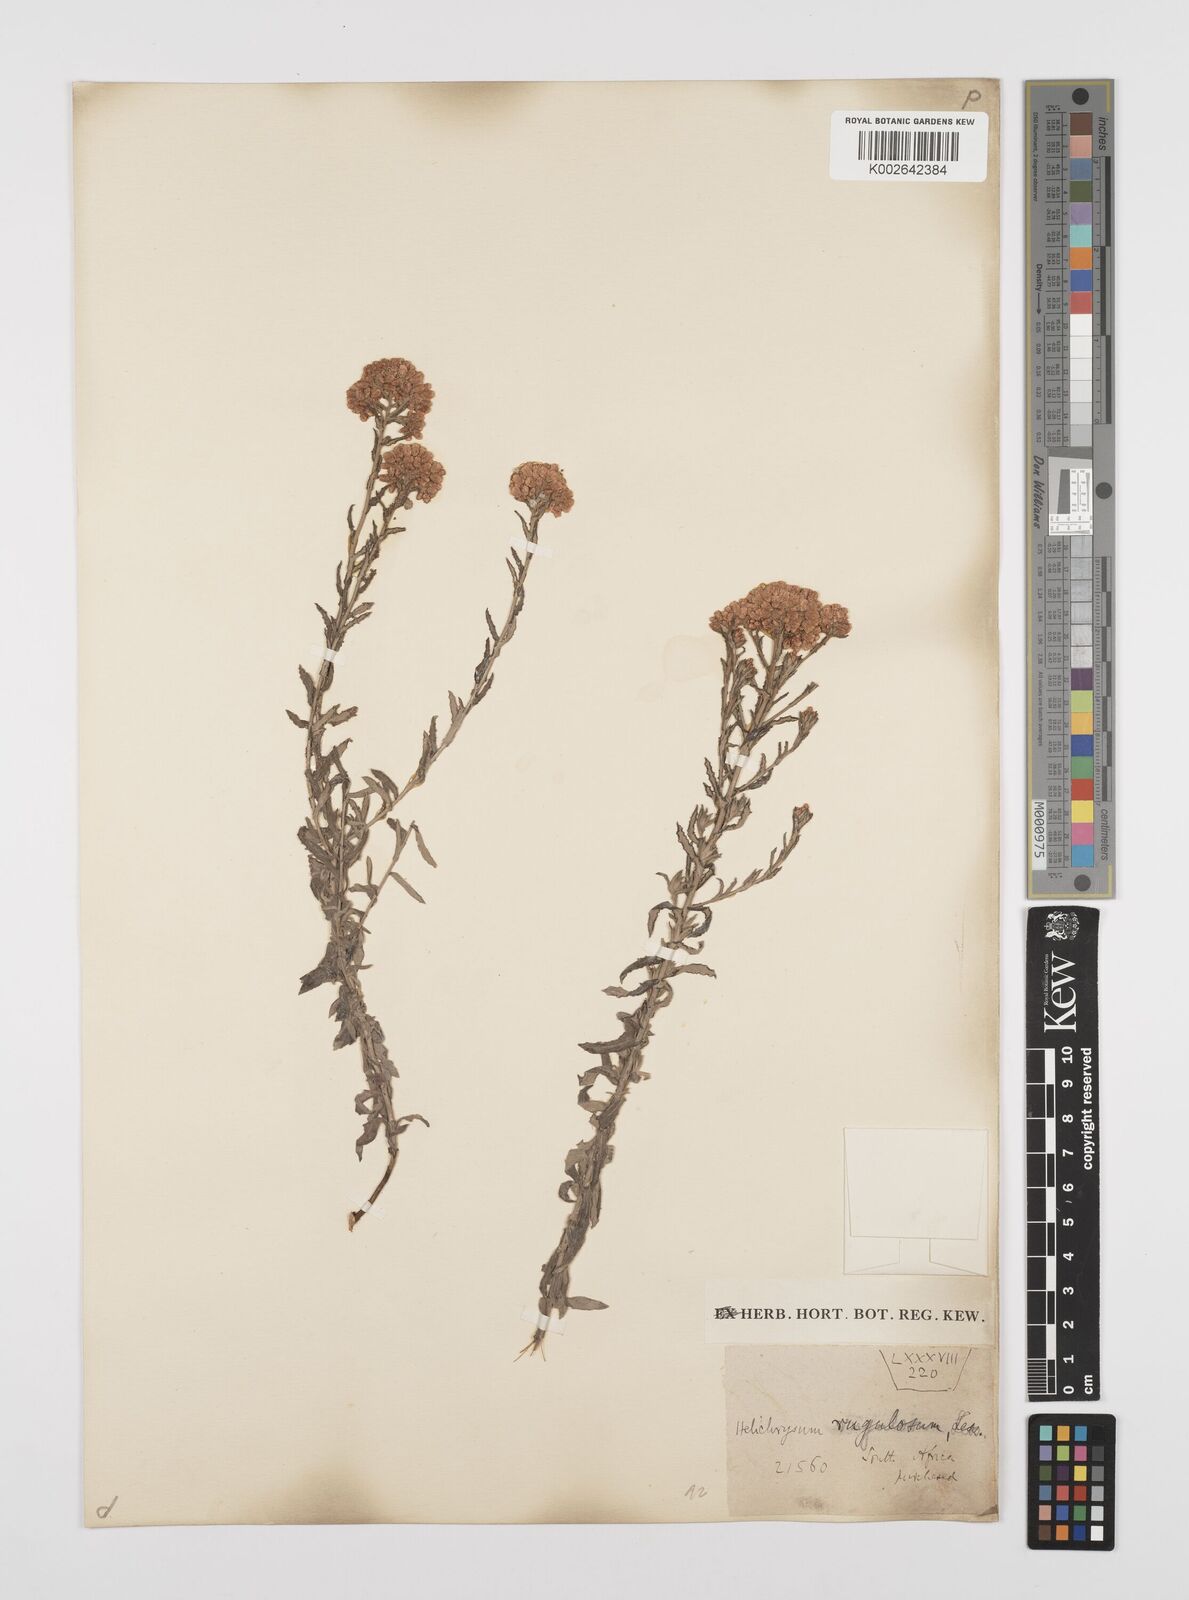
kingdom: Plantae
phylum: Tracheophyta
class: Magnoliopsida
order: Asterales
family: Asteraceae
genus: Helichrysum
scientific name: Helichrysum rugulosum
